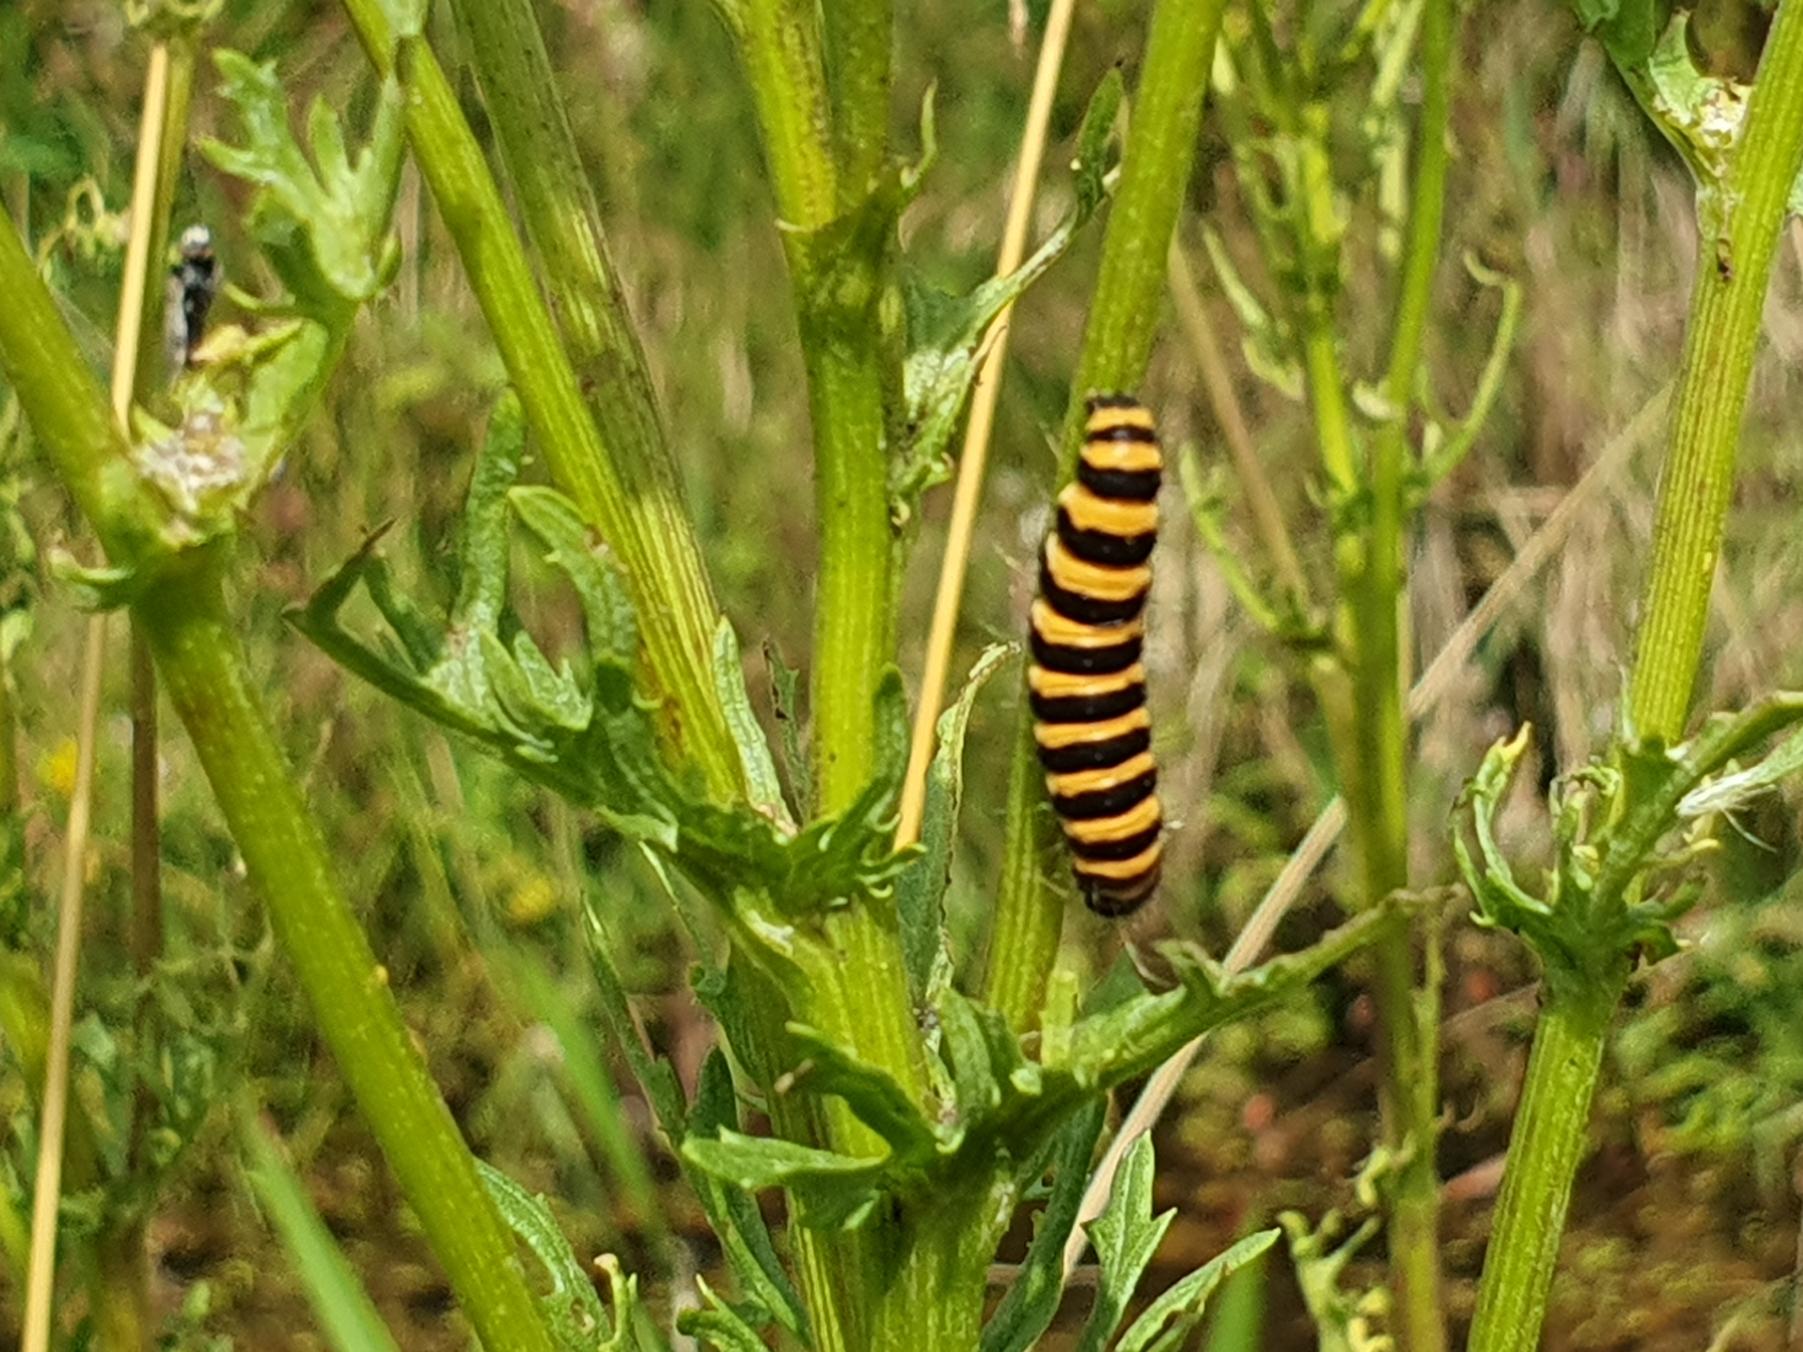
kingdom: Animalia
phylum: Arthropoda
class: Insecta
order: Lepidoptera
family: Erebidae
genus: Tyria
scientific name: Tyria jacobaeae
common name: Blodplet
